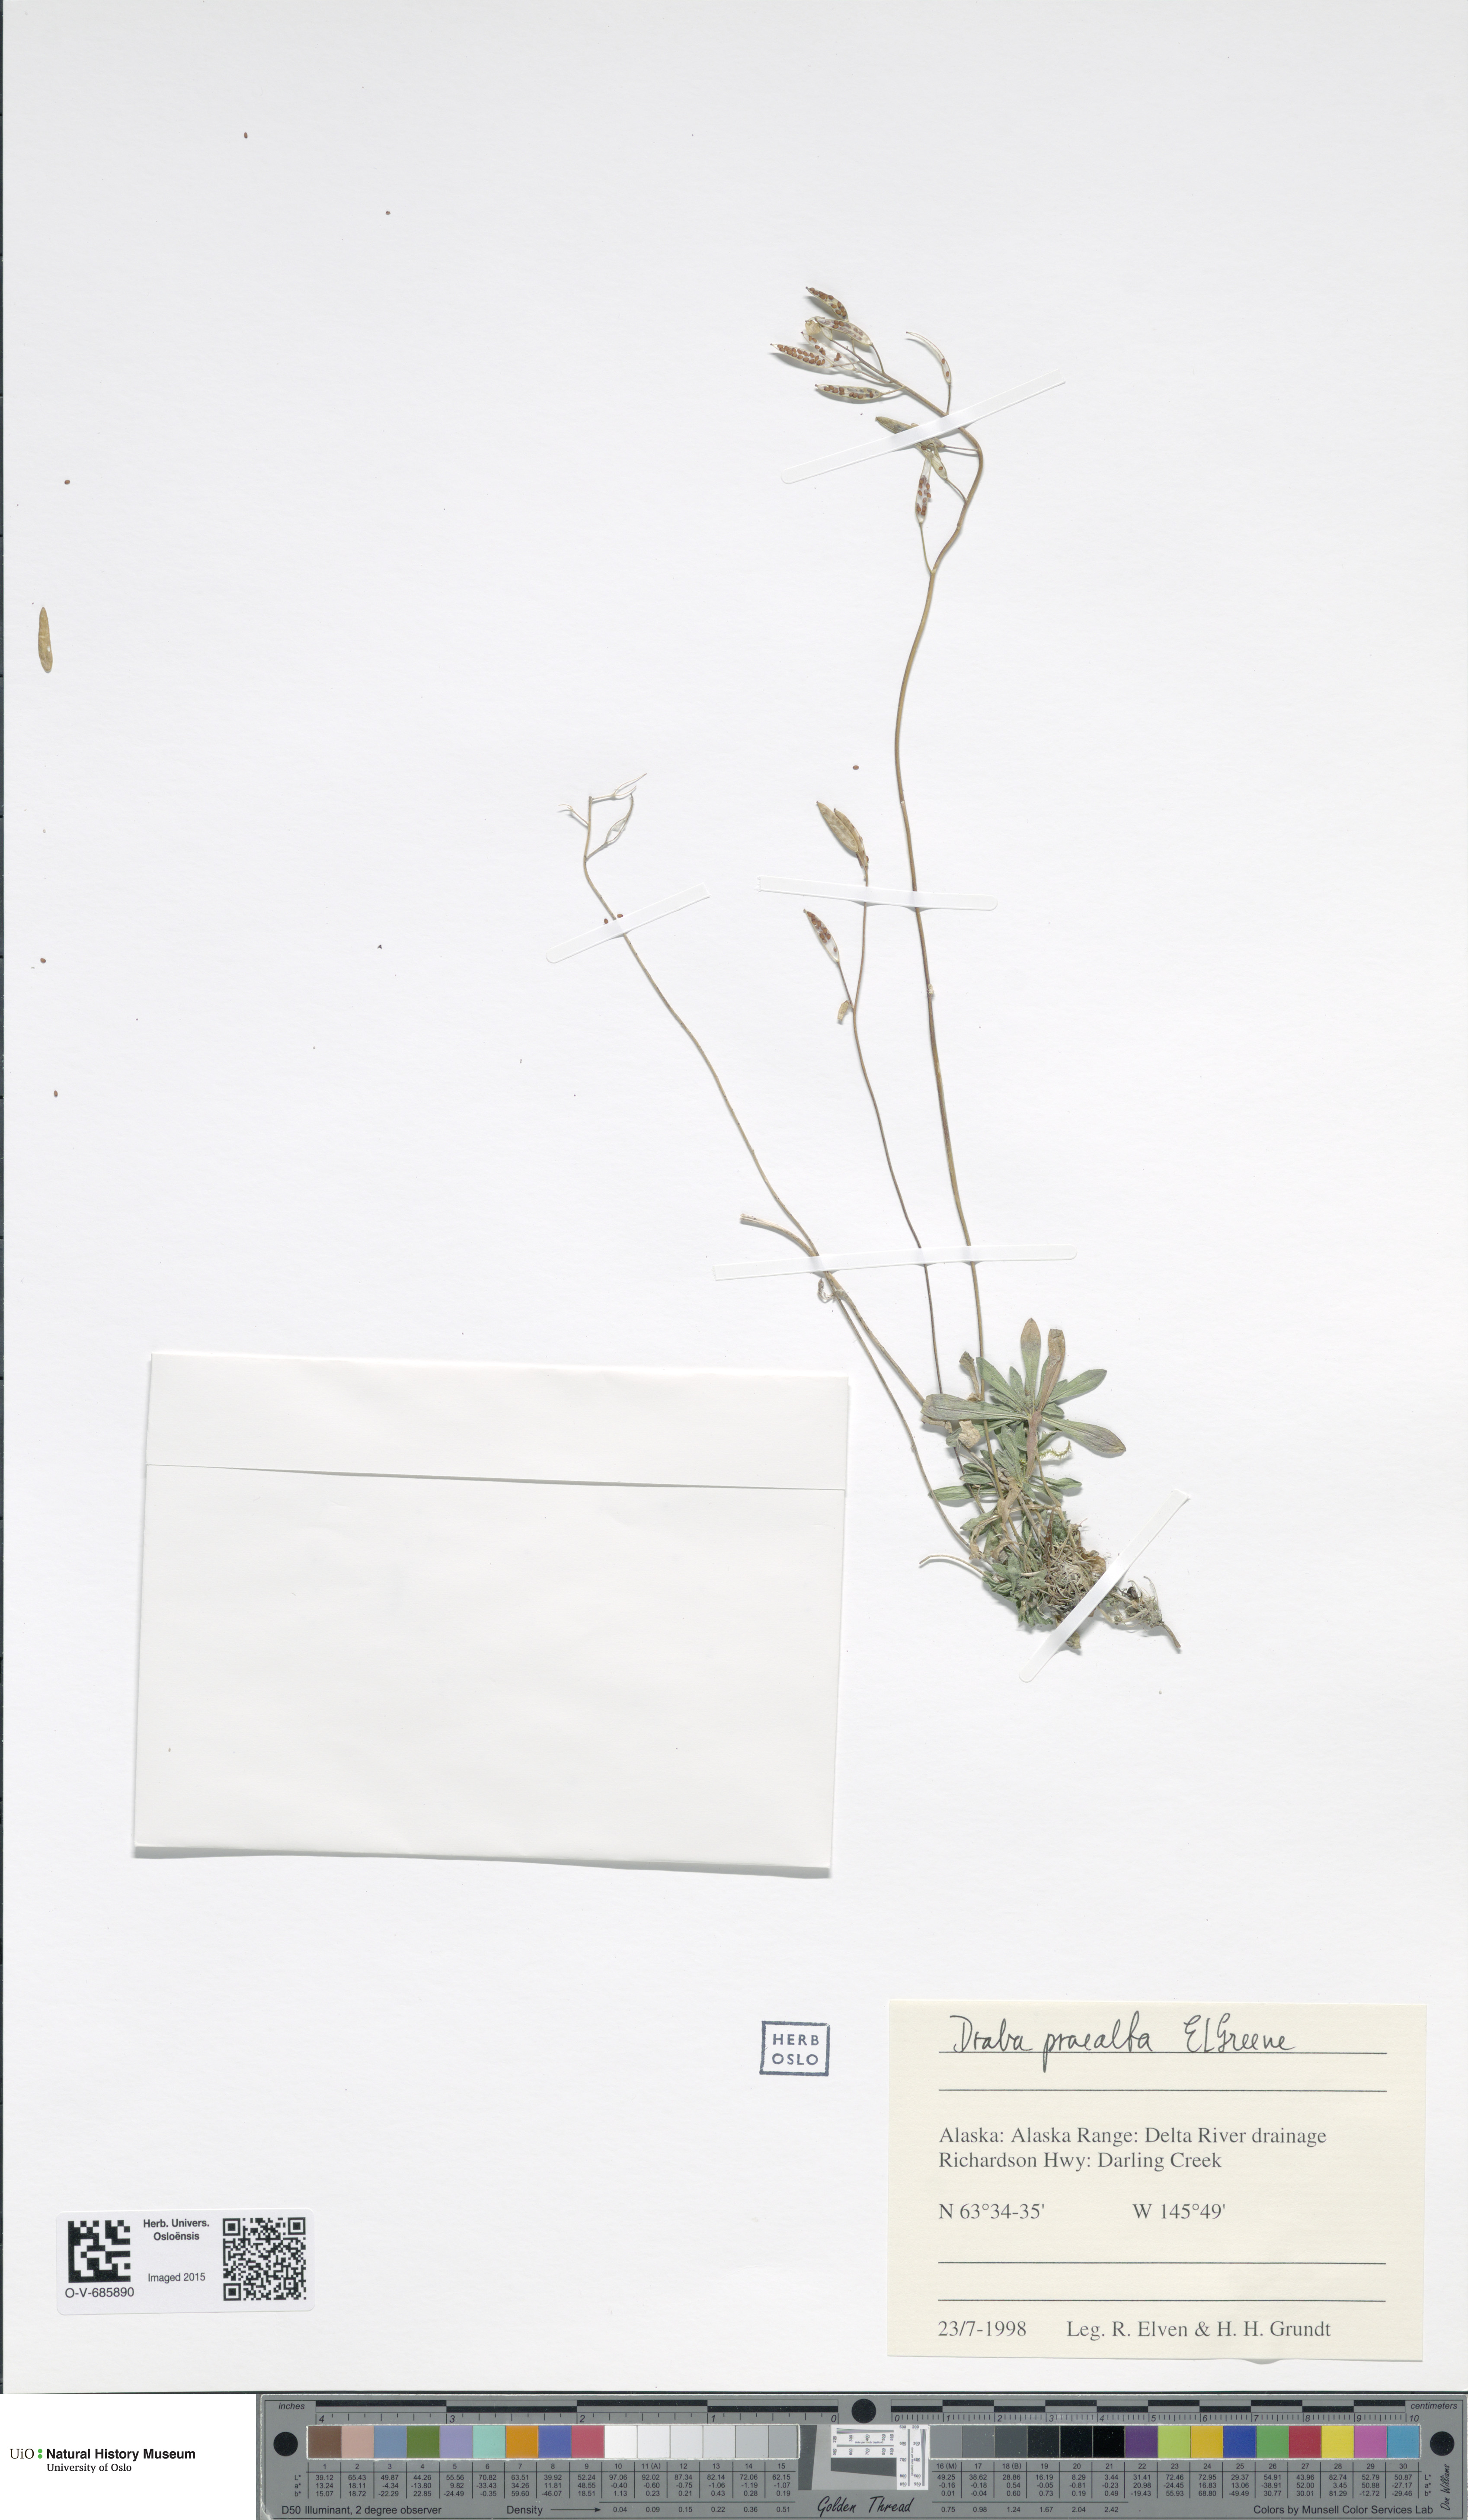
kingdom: Plantae
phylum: Tracheophyta
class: Magnoliopsida
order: Brassicales
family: Brassicaceae
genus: Draba
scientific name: Draba praealta
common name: Tall draba
